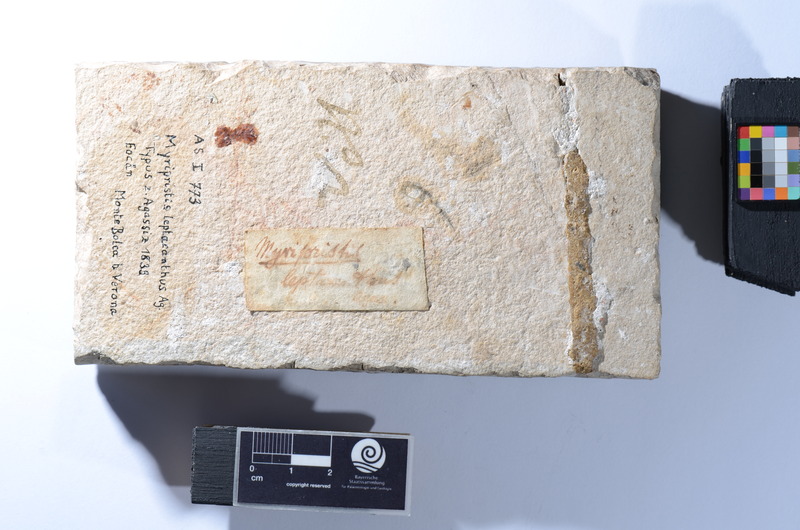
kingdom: Animalia
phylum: Chordata
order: Beryciformes
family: Holocentridae
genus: Berybolcensis
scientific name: Berybolcensis leptacanthus
